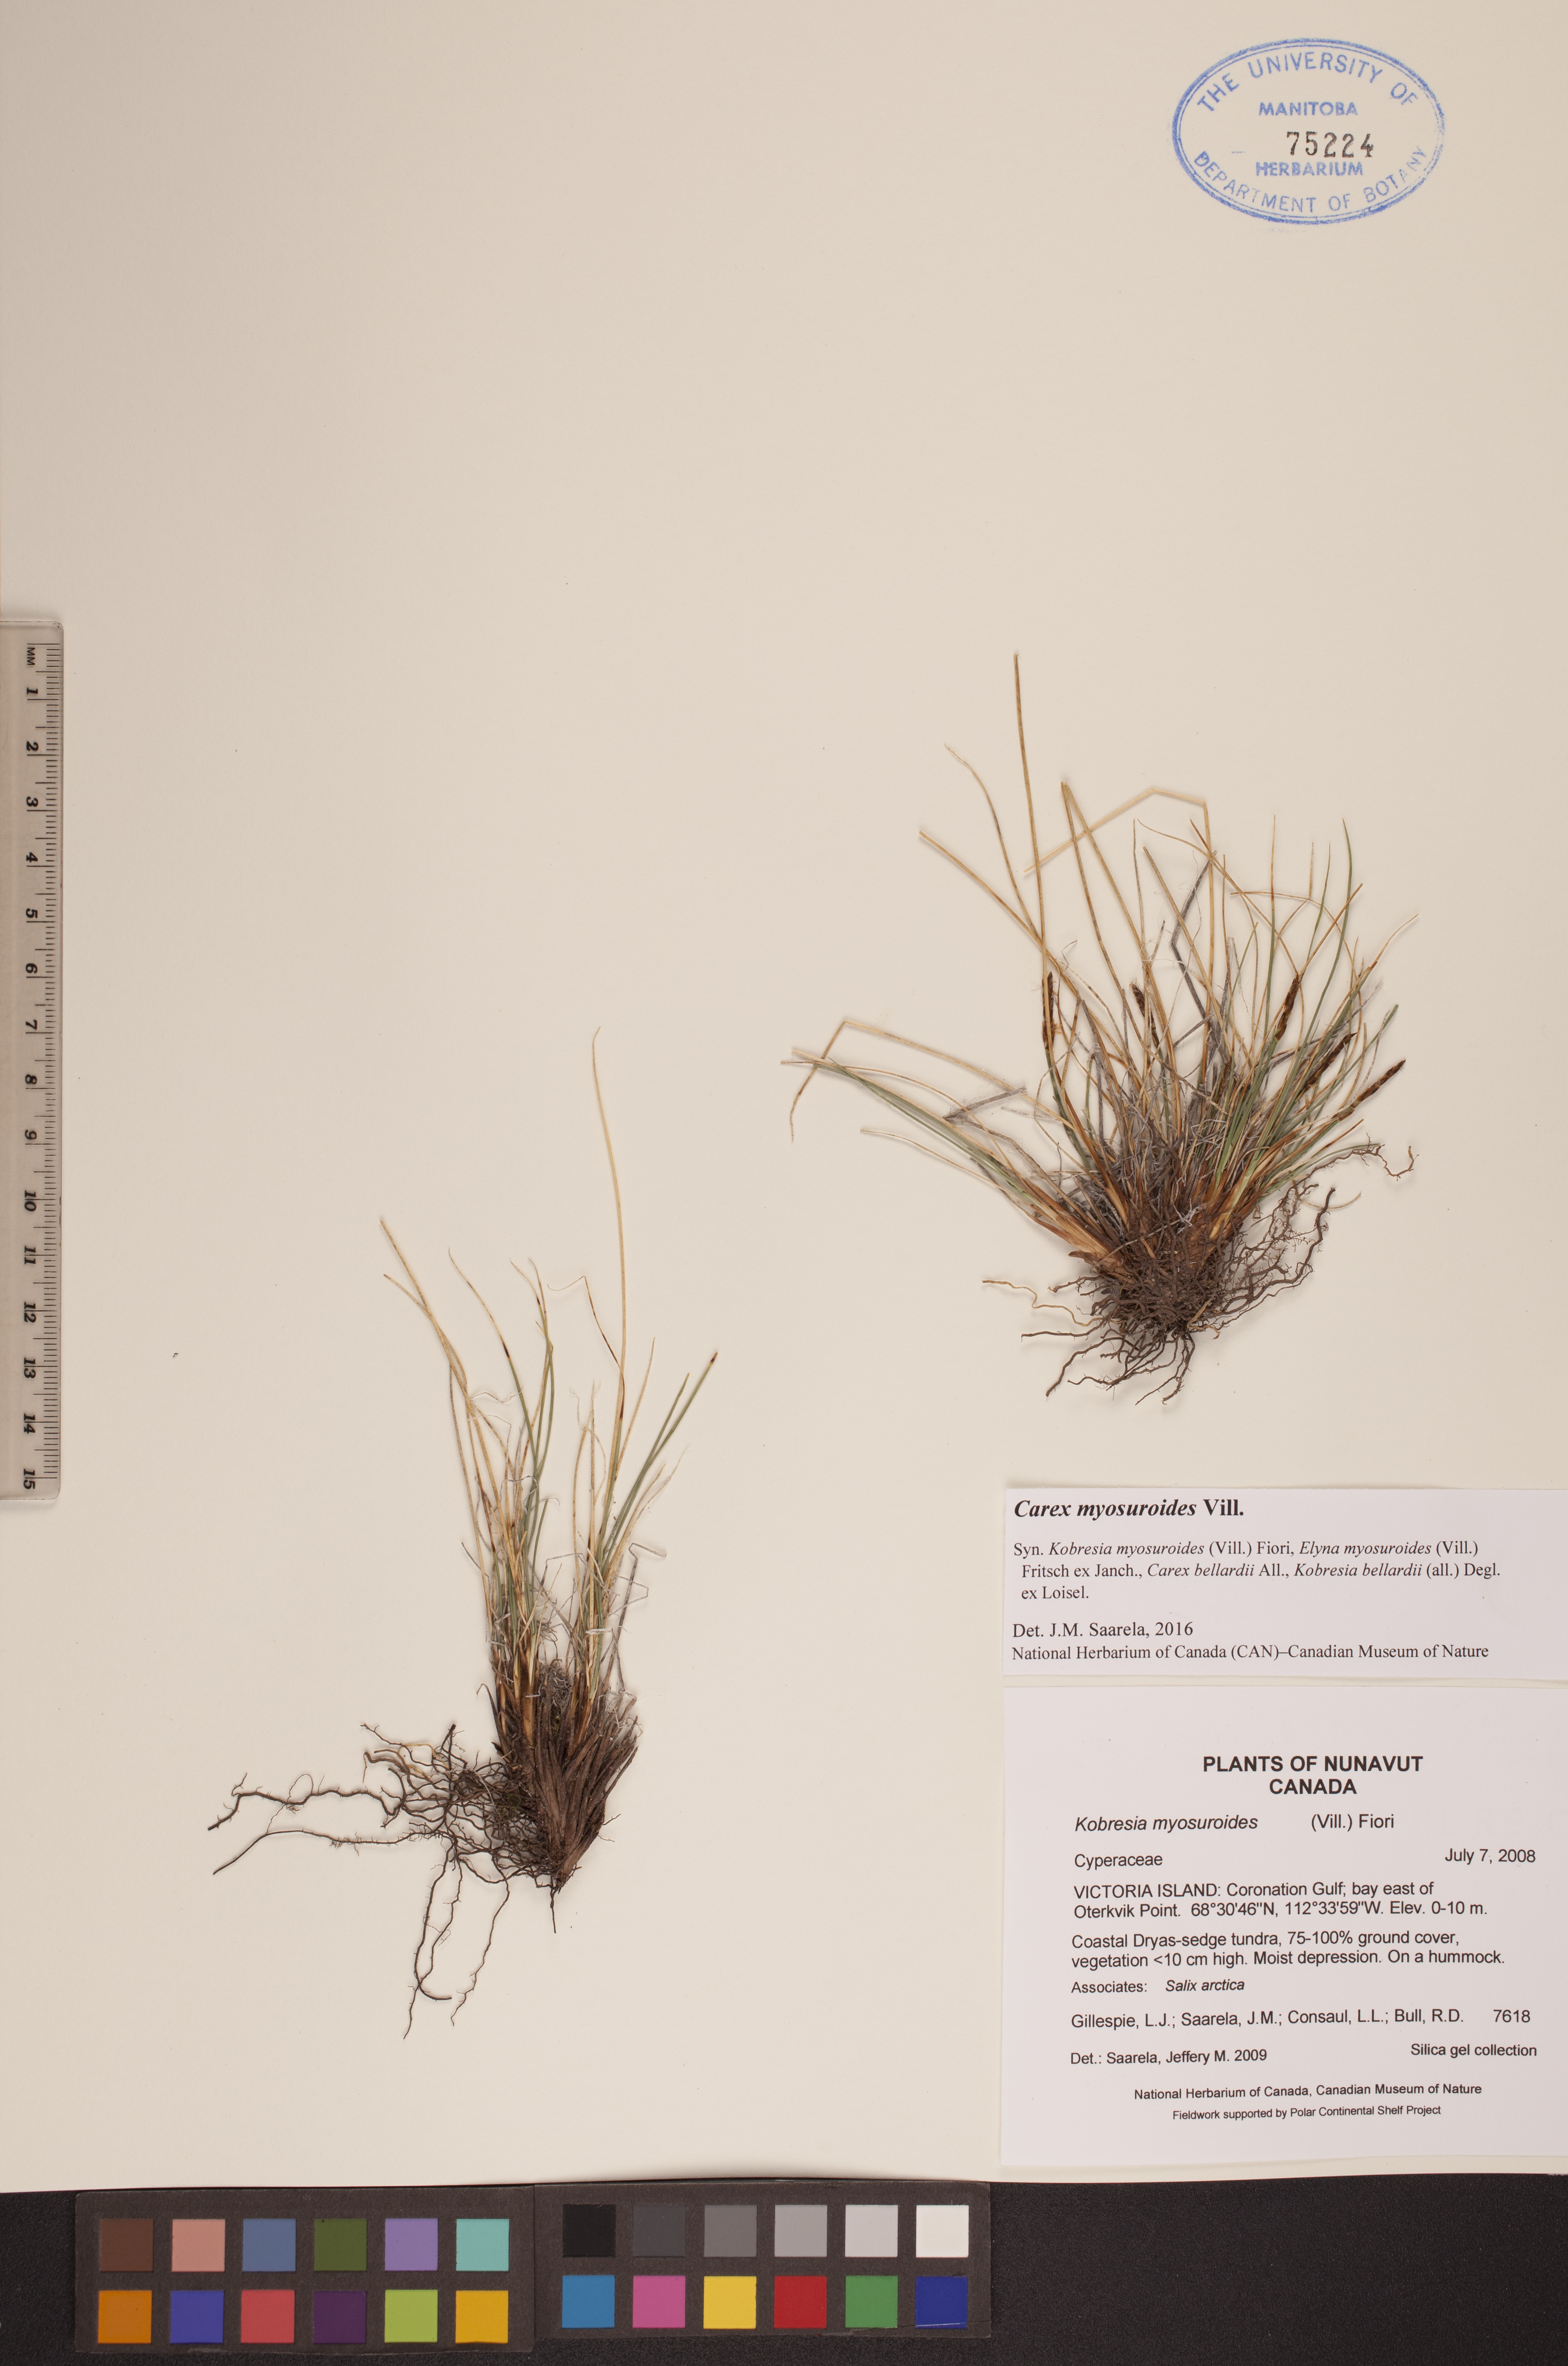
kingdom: Plantae
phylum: Tracheophyta
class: Liliopsida
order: Poales
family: Cyperaceae
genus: Carex
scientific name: Carex myosuroides
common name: Bellard's bog sedge
